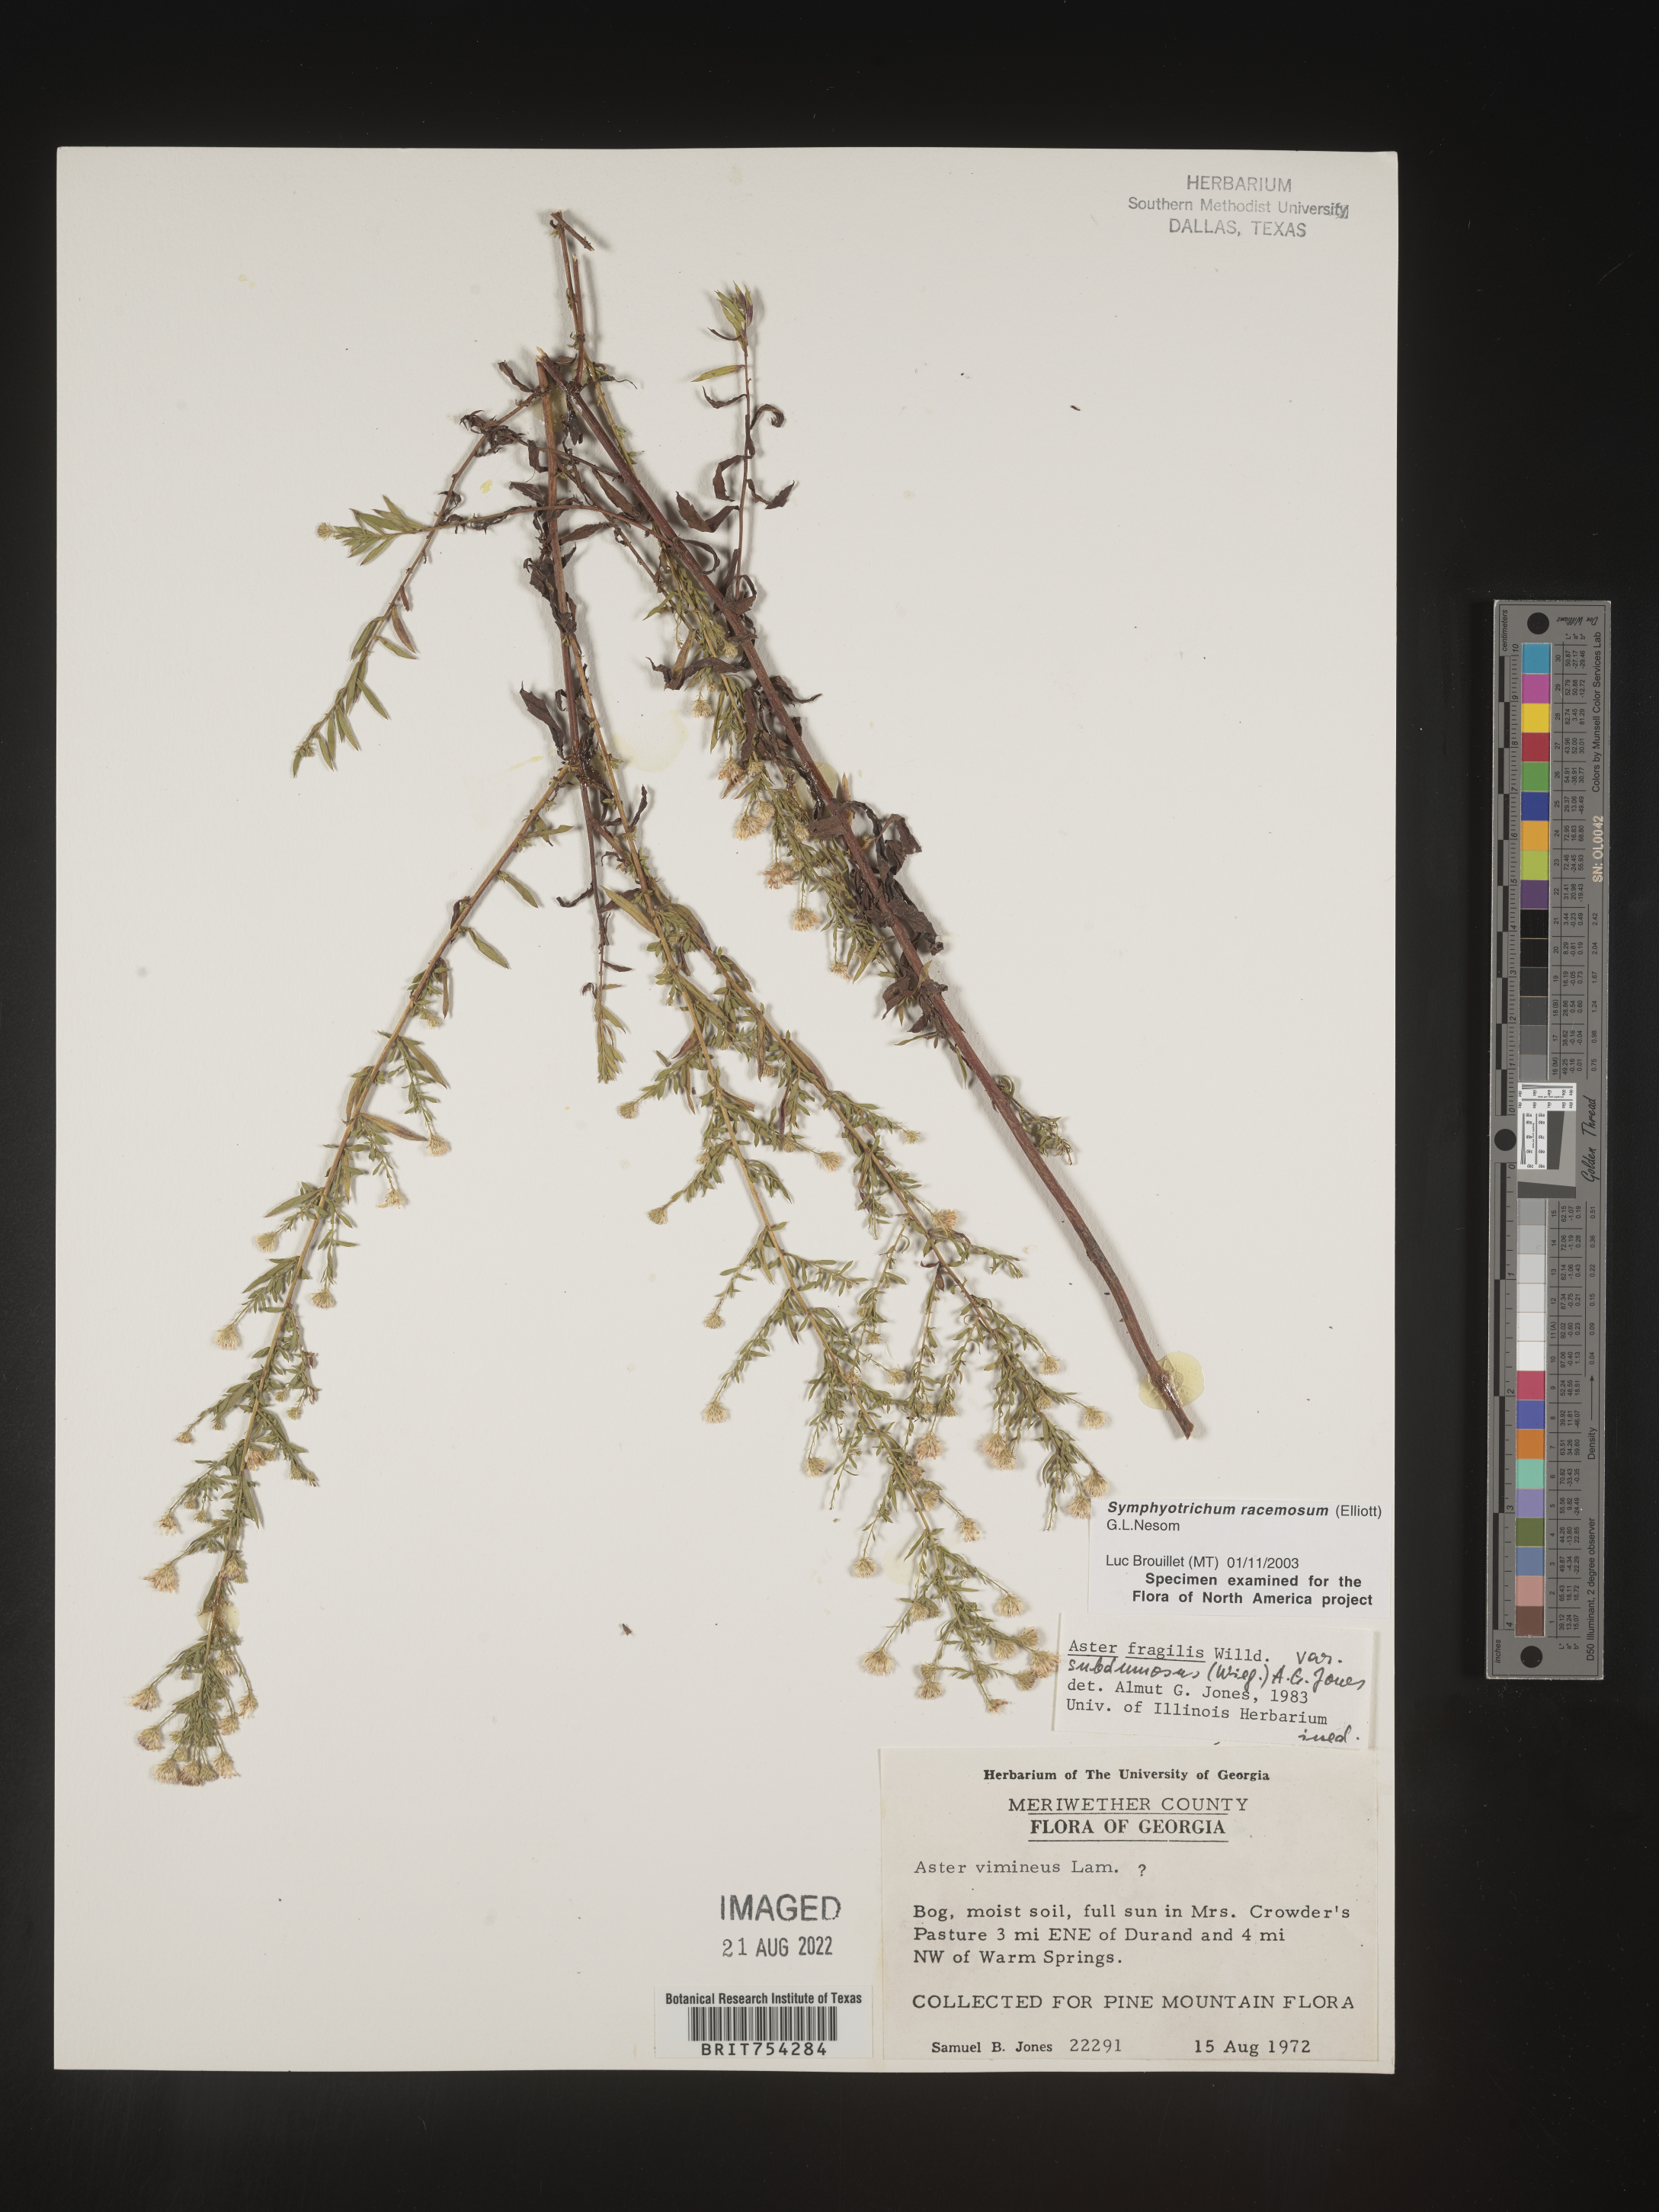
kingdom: Plantae
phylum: Tracheophyta
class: Magnoliopsida
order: Asterales
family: Asteraceae
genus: Symphyotrichum
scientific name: Symphyotrichum racemosum
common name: Small white aster
